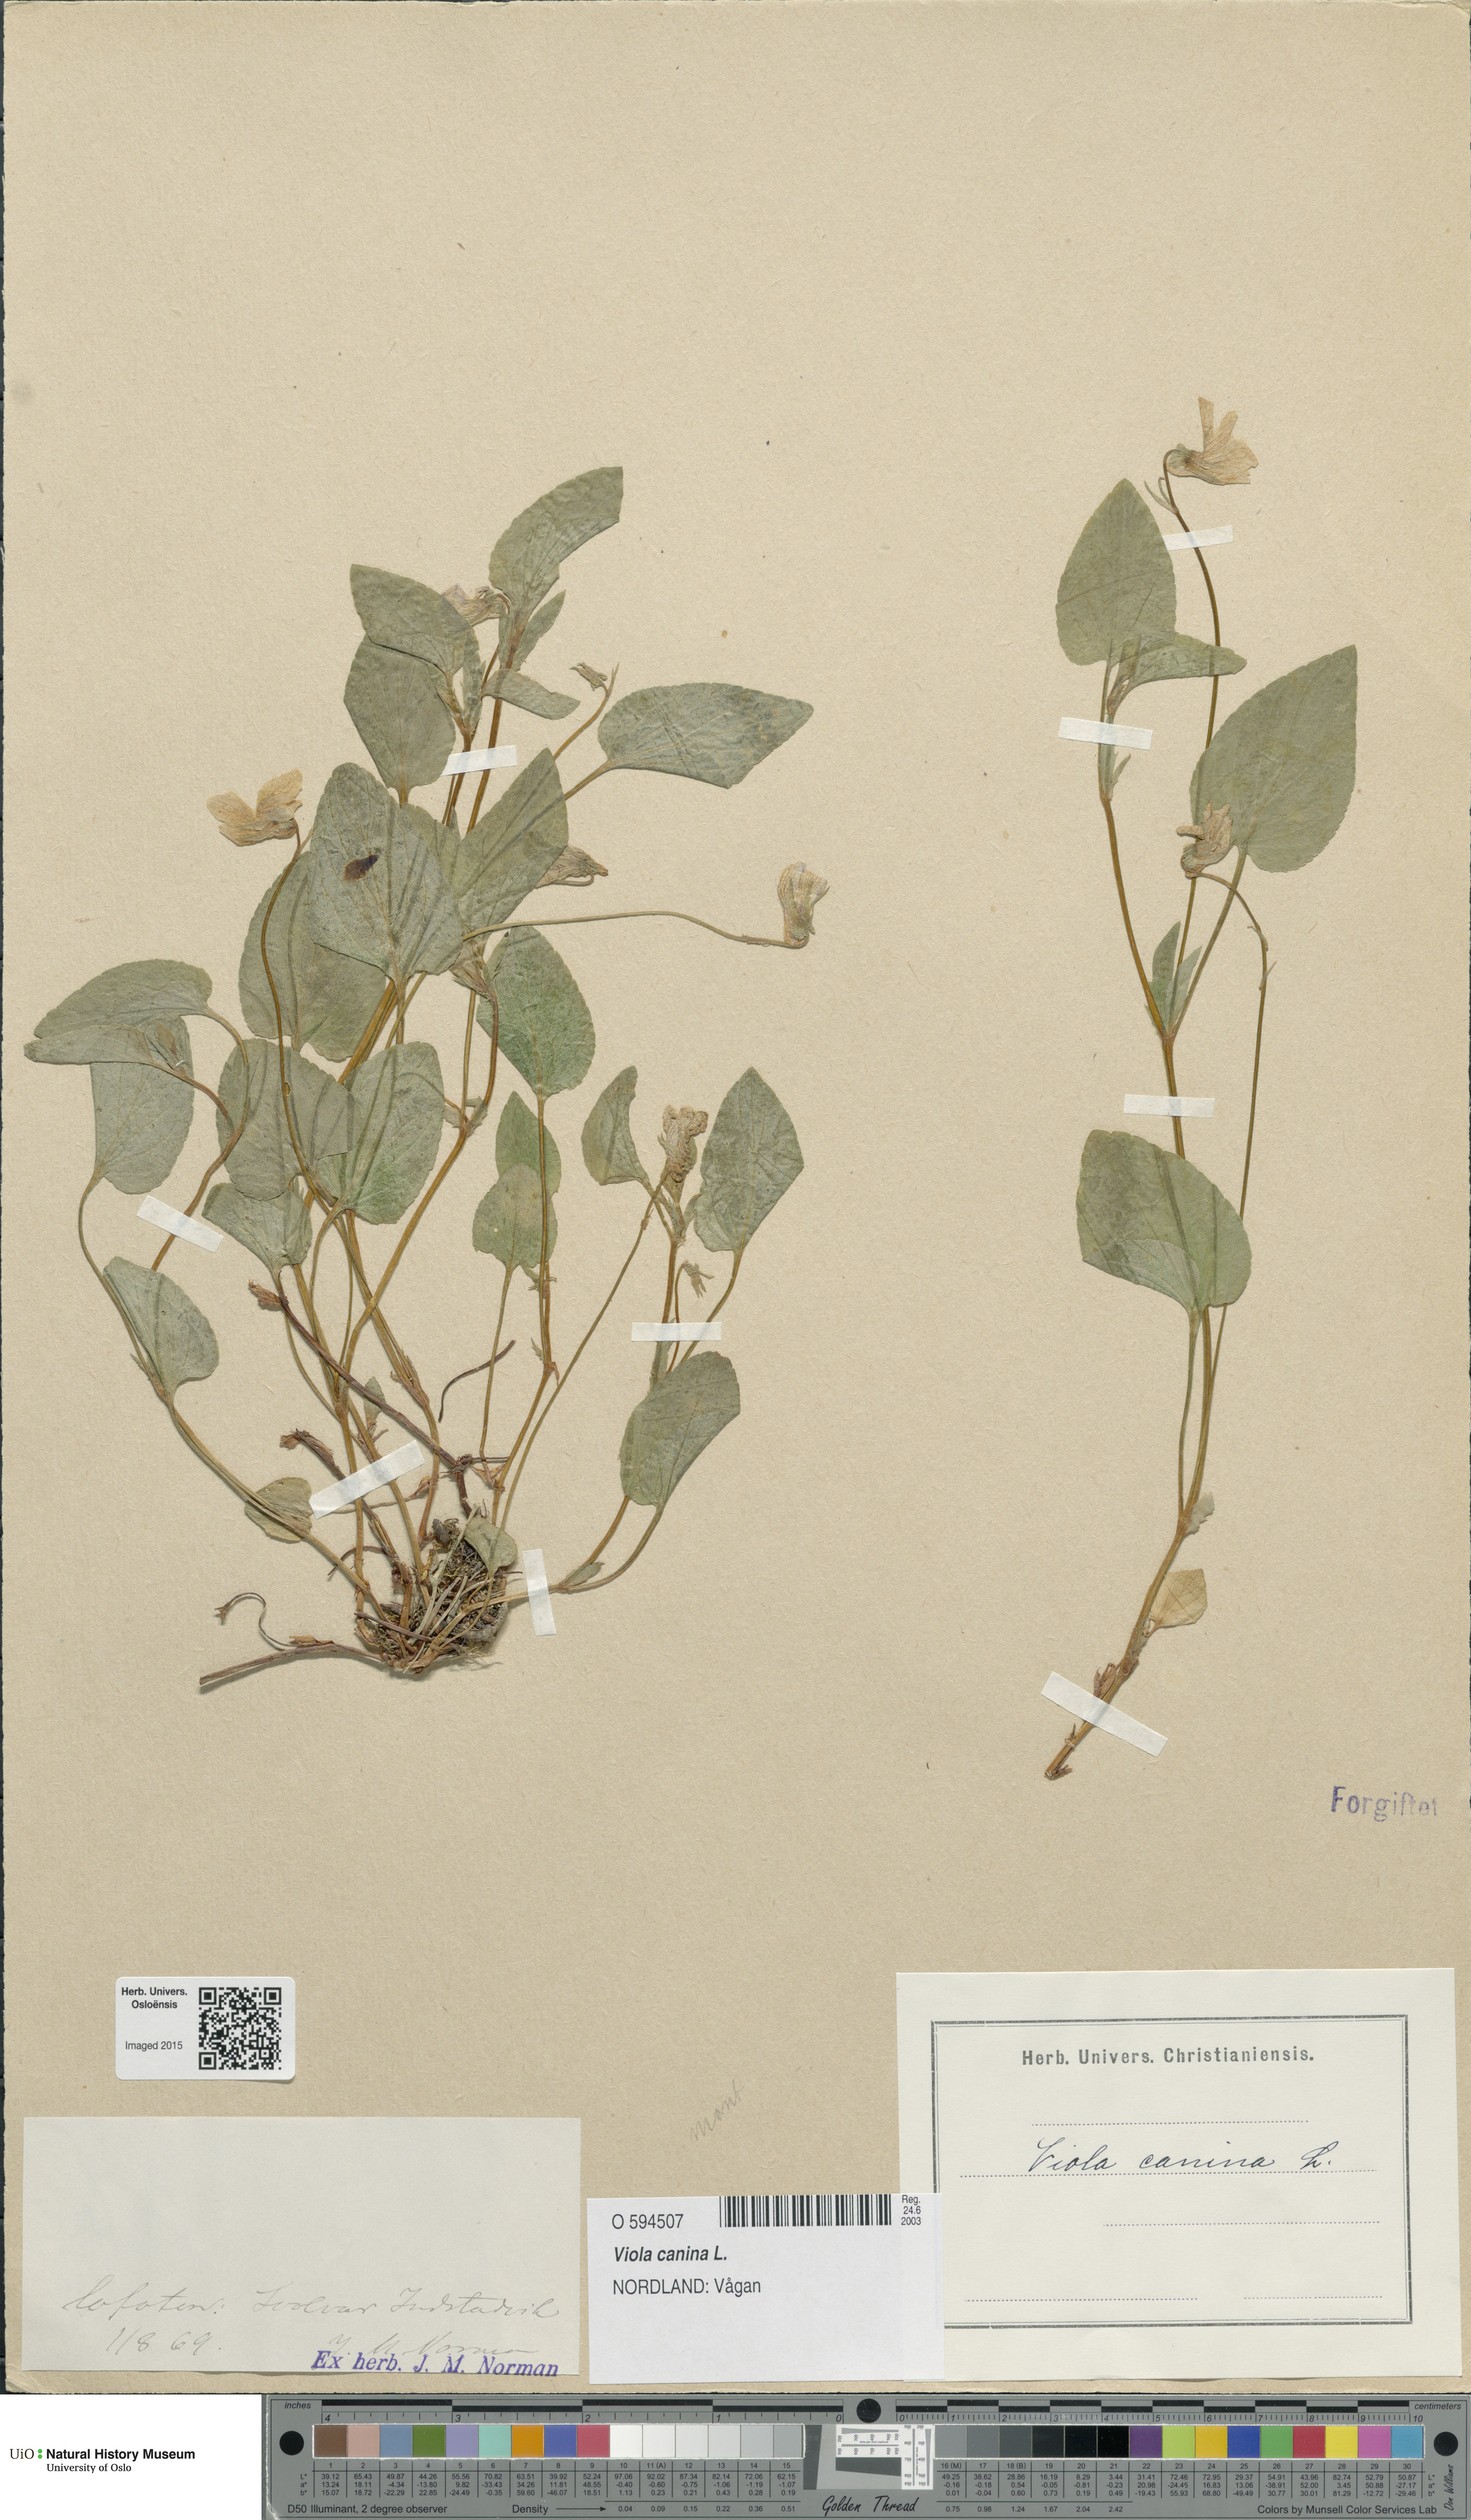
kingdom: Plantae
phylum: Tracheophyta
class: Magnoliopsida
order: Malpighiales
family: Violaceae
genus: Viola
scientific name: Viola canina
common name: Heath dog-violet
